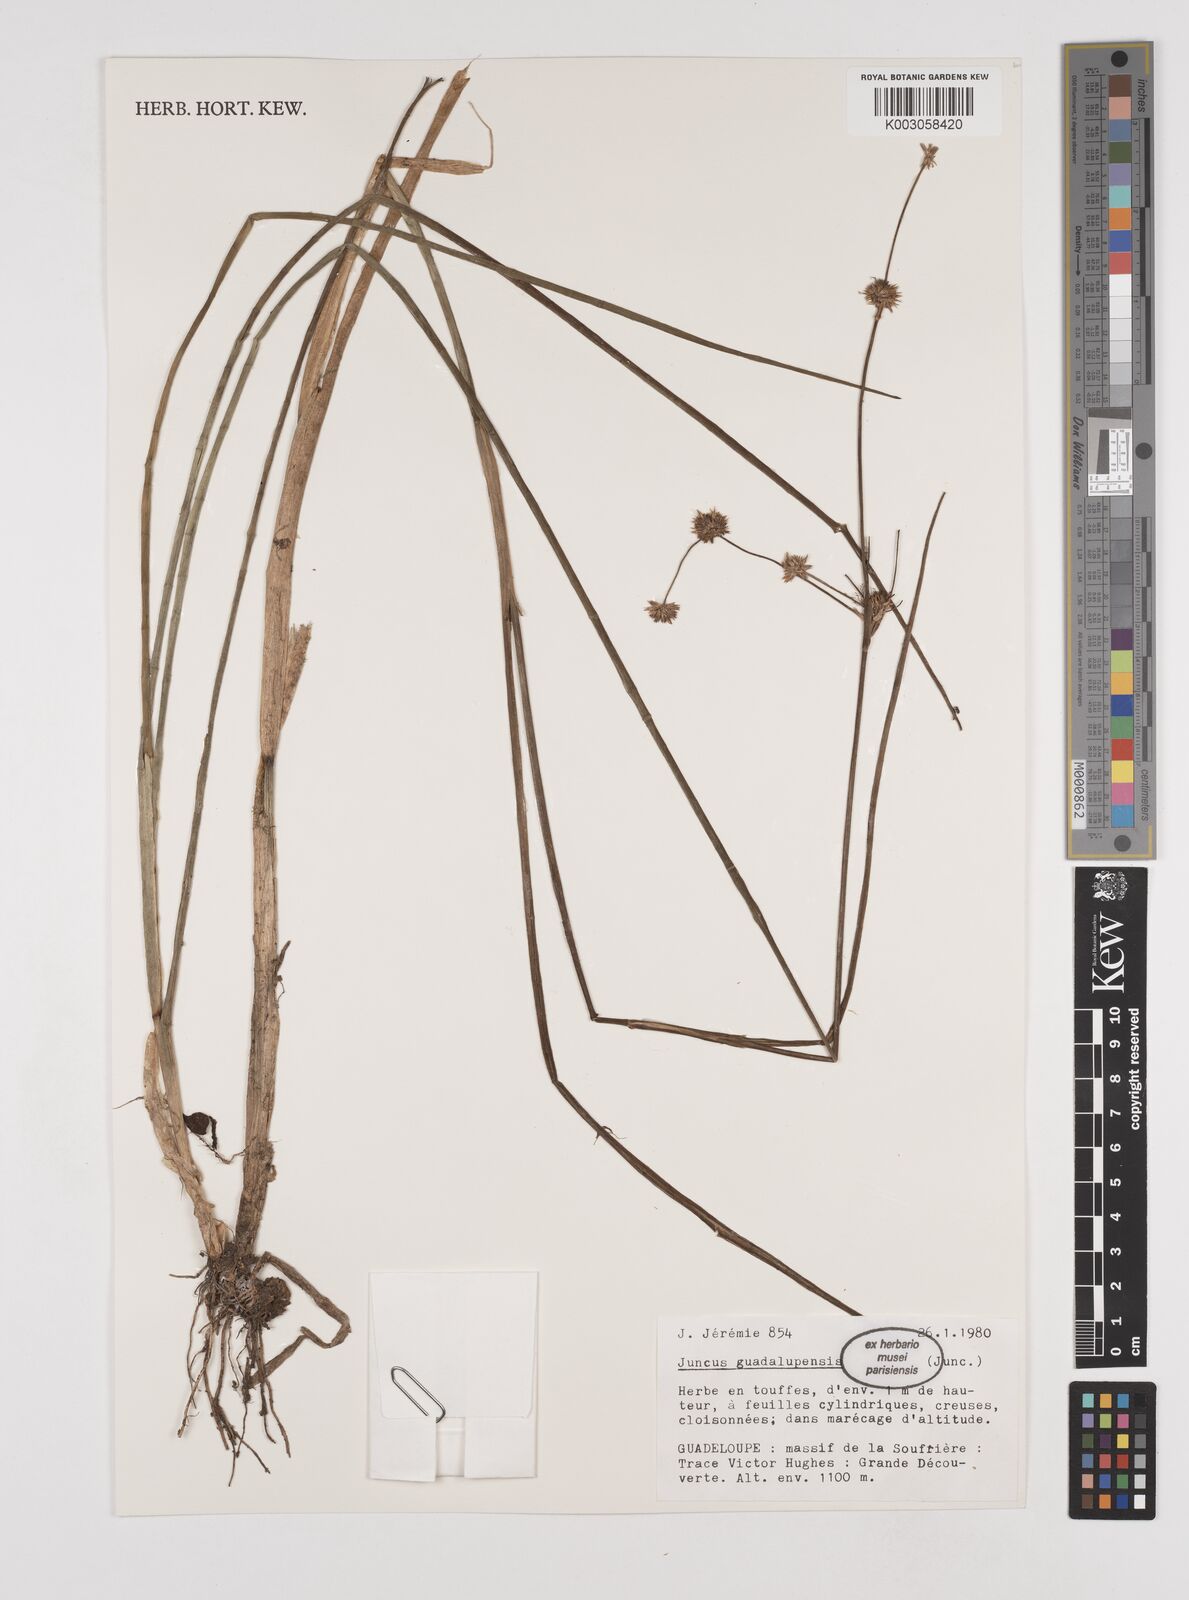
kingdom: Plantae
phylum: Tracheophyta
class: Liliopsida
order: Poales
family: Juncaceae
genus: Juncus
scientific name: Juncus guadeloupensis
